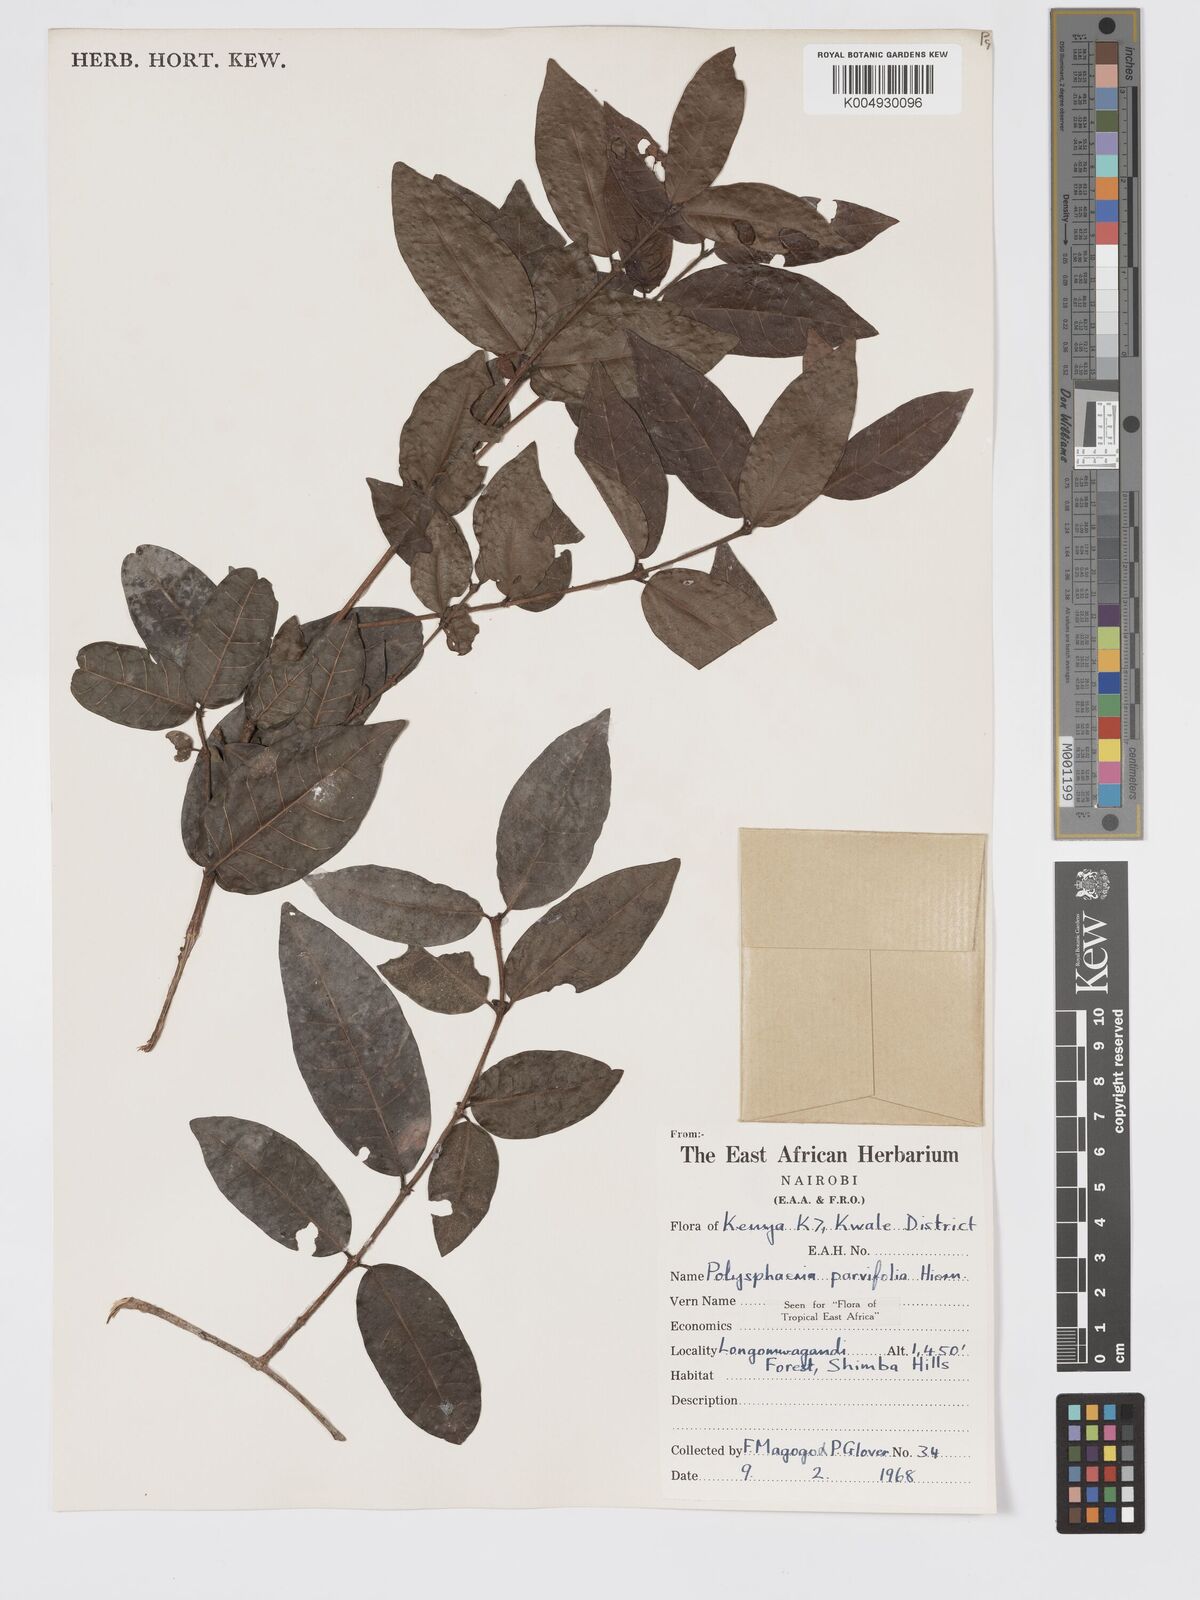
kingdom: Plantae
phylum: Tracheophyta
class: Magnoliopsida
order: Gentianales
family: Rubiaceae
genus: Eumachia
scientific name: Eumachia parviflora
